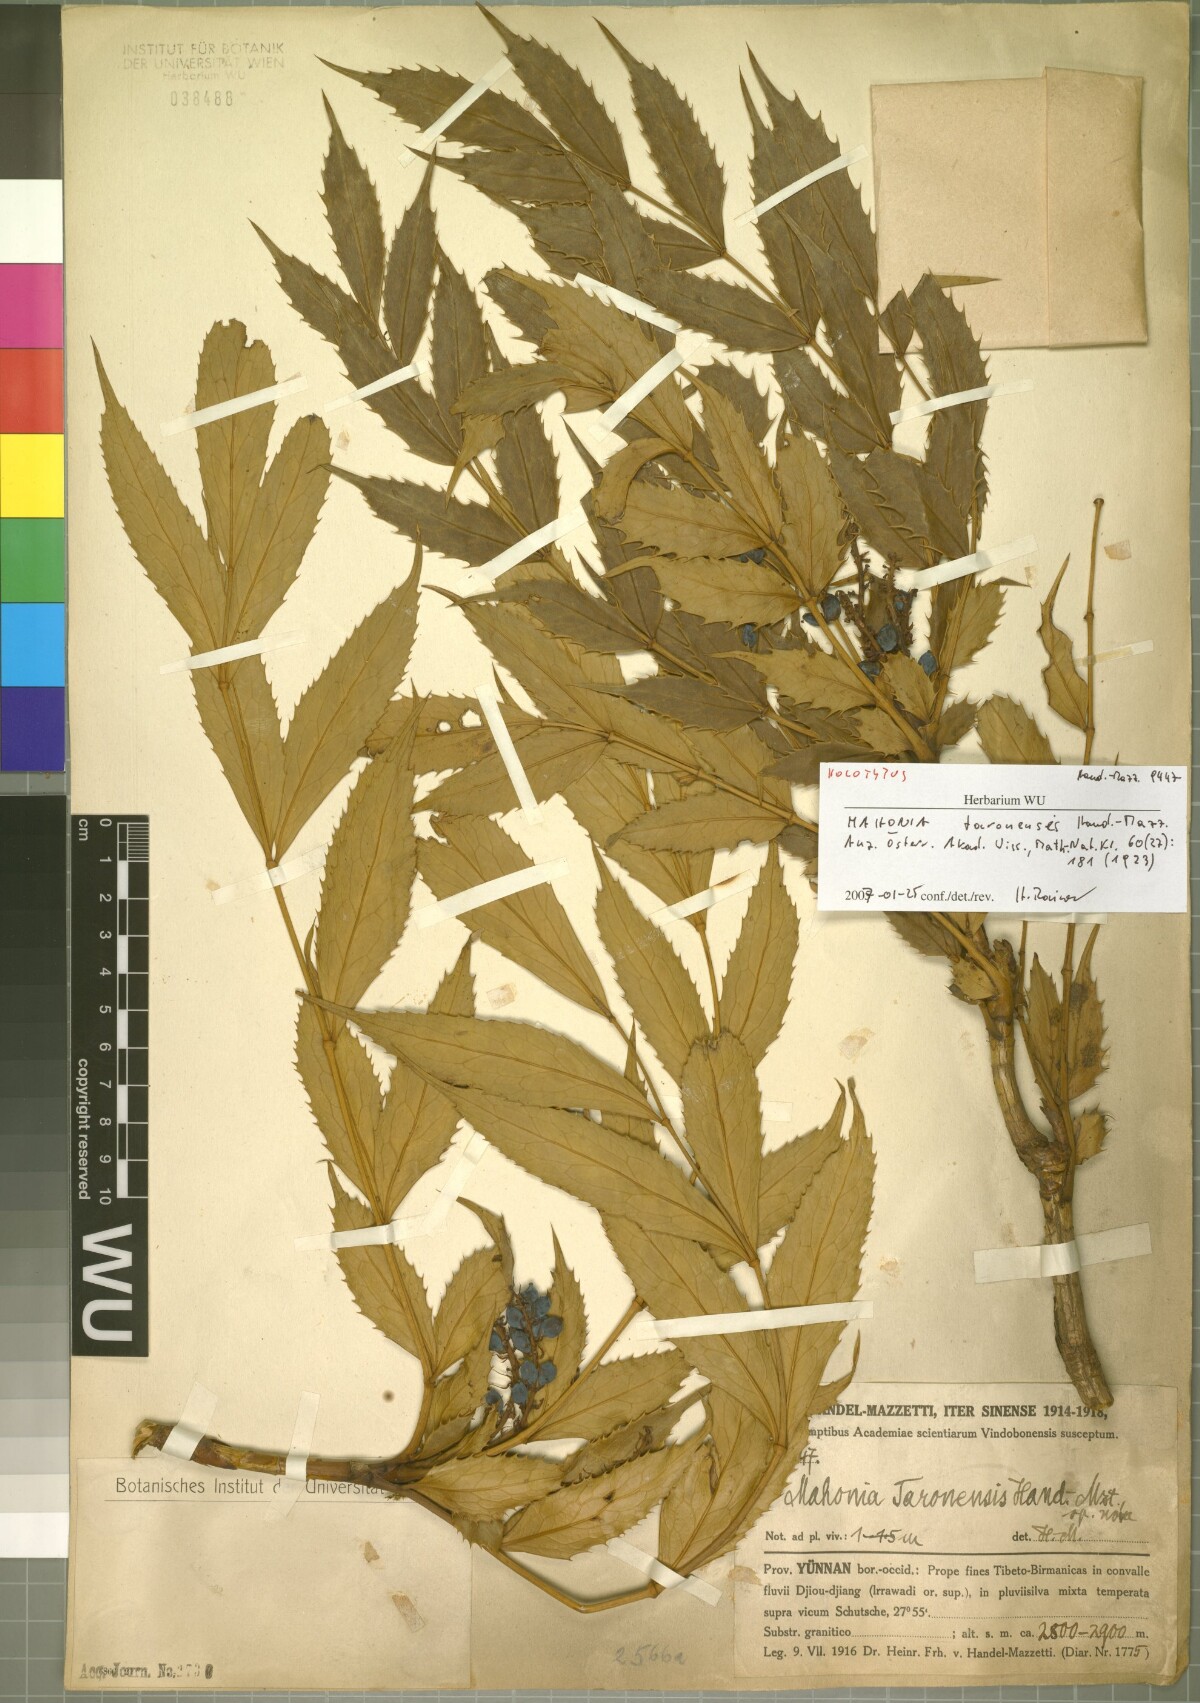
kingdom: Plantae
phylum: Tracheophyta
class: Magnoliopsida
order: Ranunculales
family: Berberidaceae
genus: Mahonia
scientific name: Mahonia taronensis
